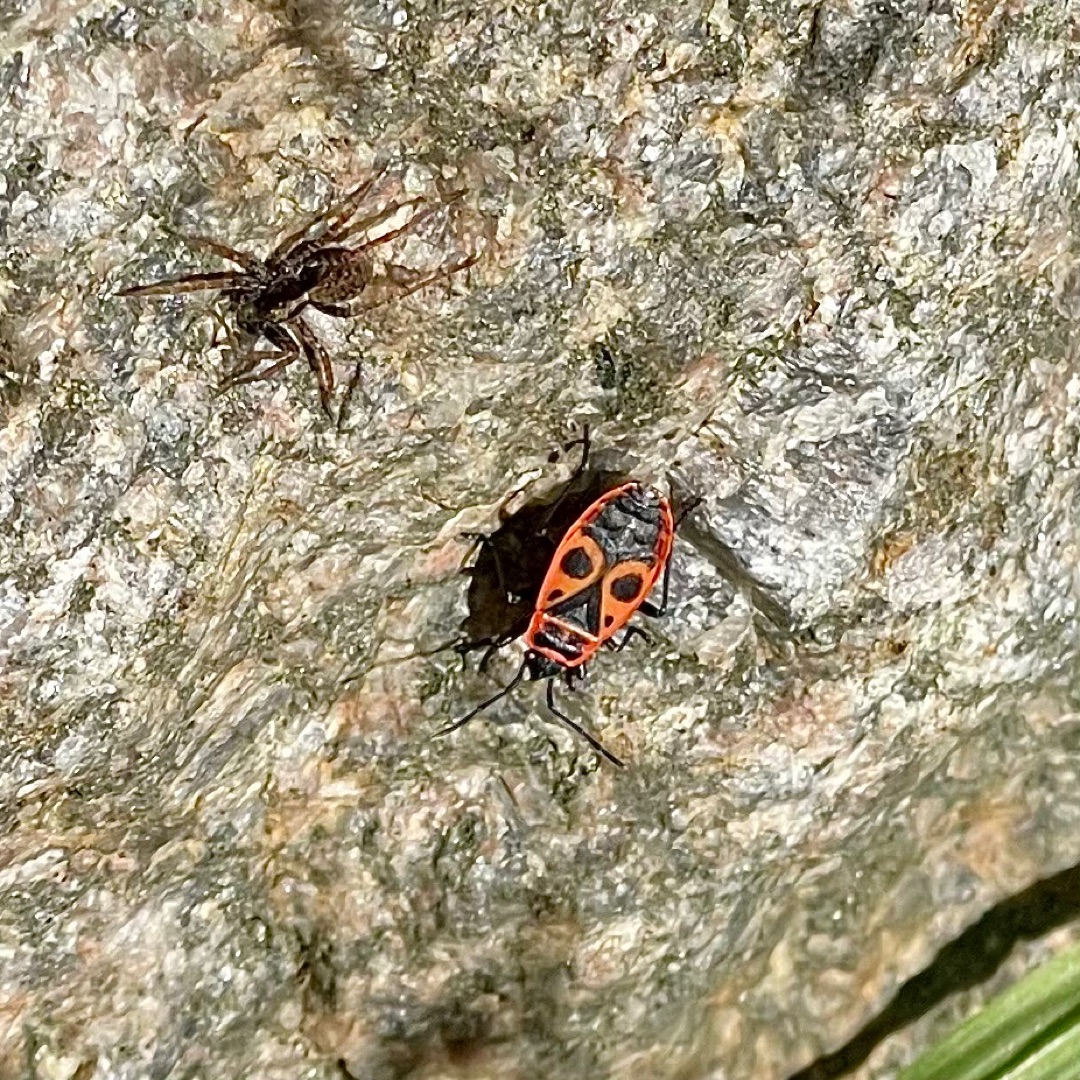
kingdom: Animalia
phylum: Arthropoda
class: Insecta
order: Hemiptera
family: Pyrrhocoridae
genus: Pyrrhocoris
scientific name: Pyrrhocoris apterus
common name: Ildtæge
